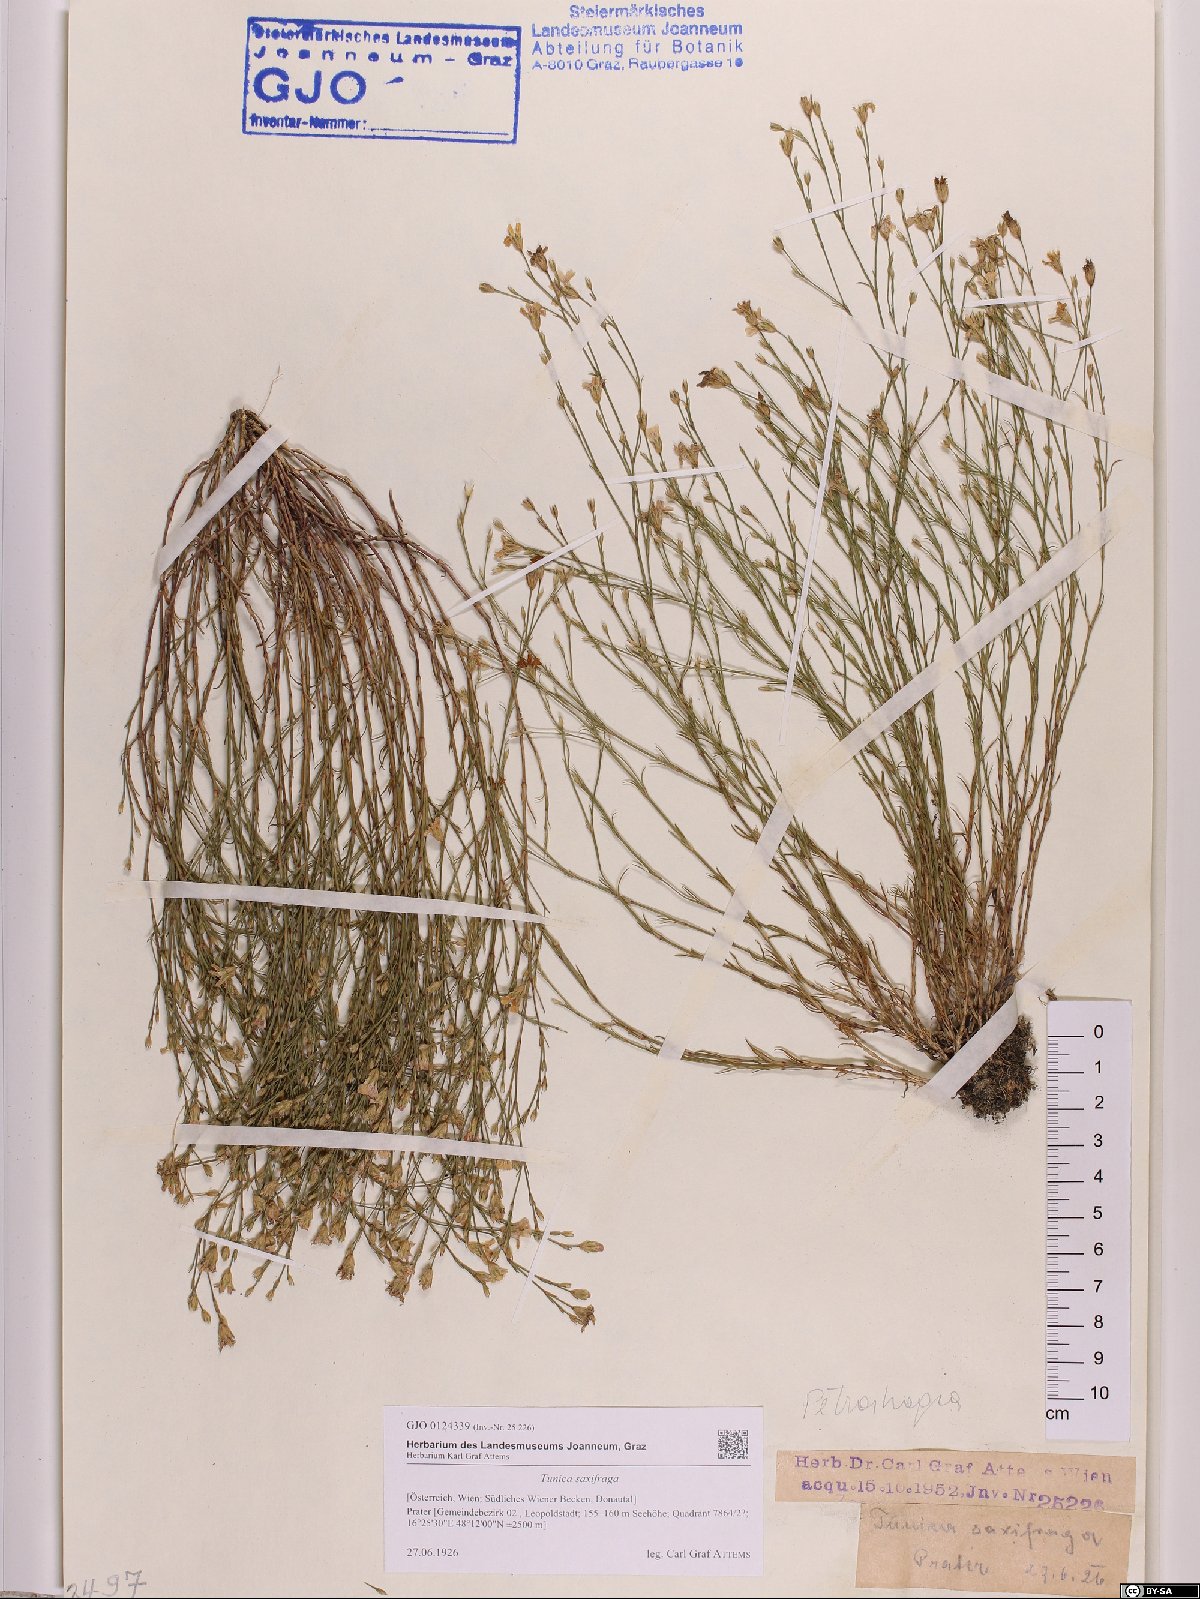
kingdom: Plantae
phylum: Tracheophyta
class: Magnoliopsida
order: Caryophyllales
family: Caryophyllaceae
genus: Petrorhagia
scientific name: Petrorhagia saxifraga
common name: Tunicflower
